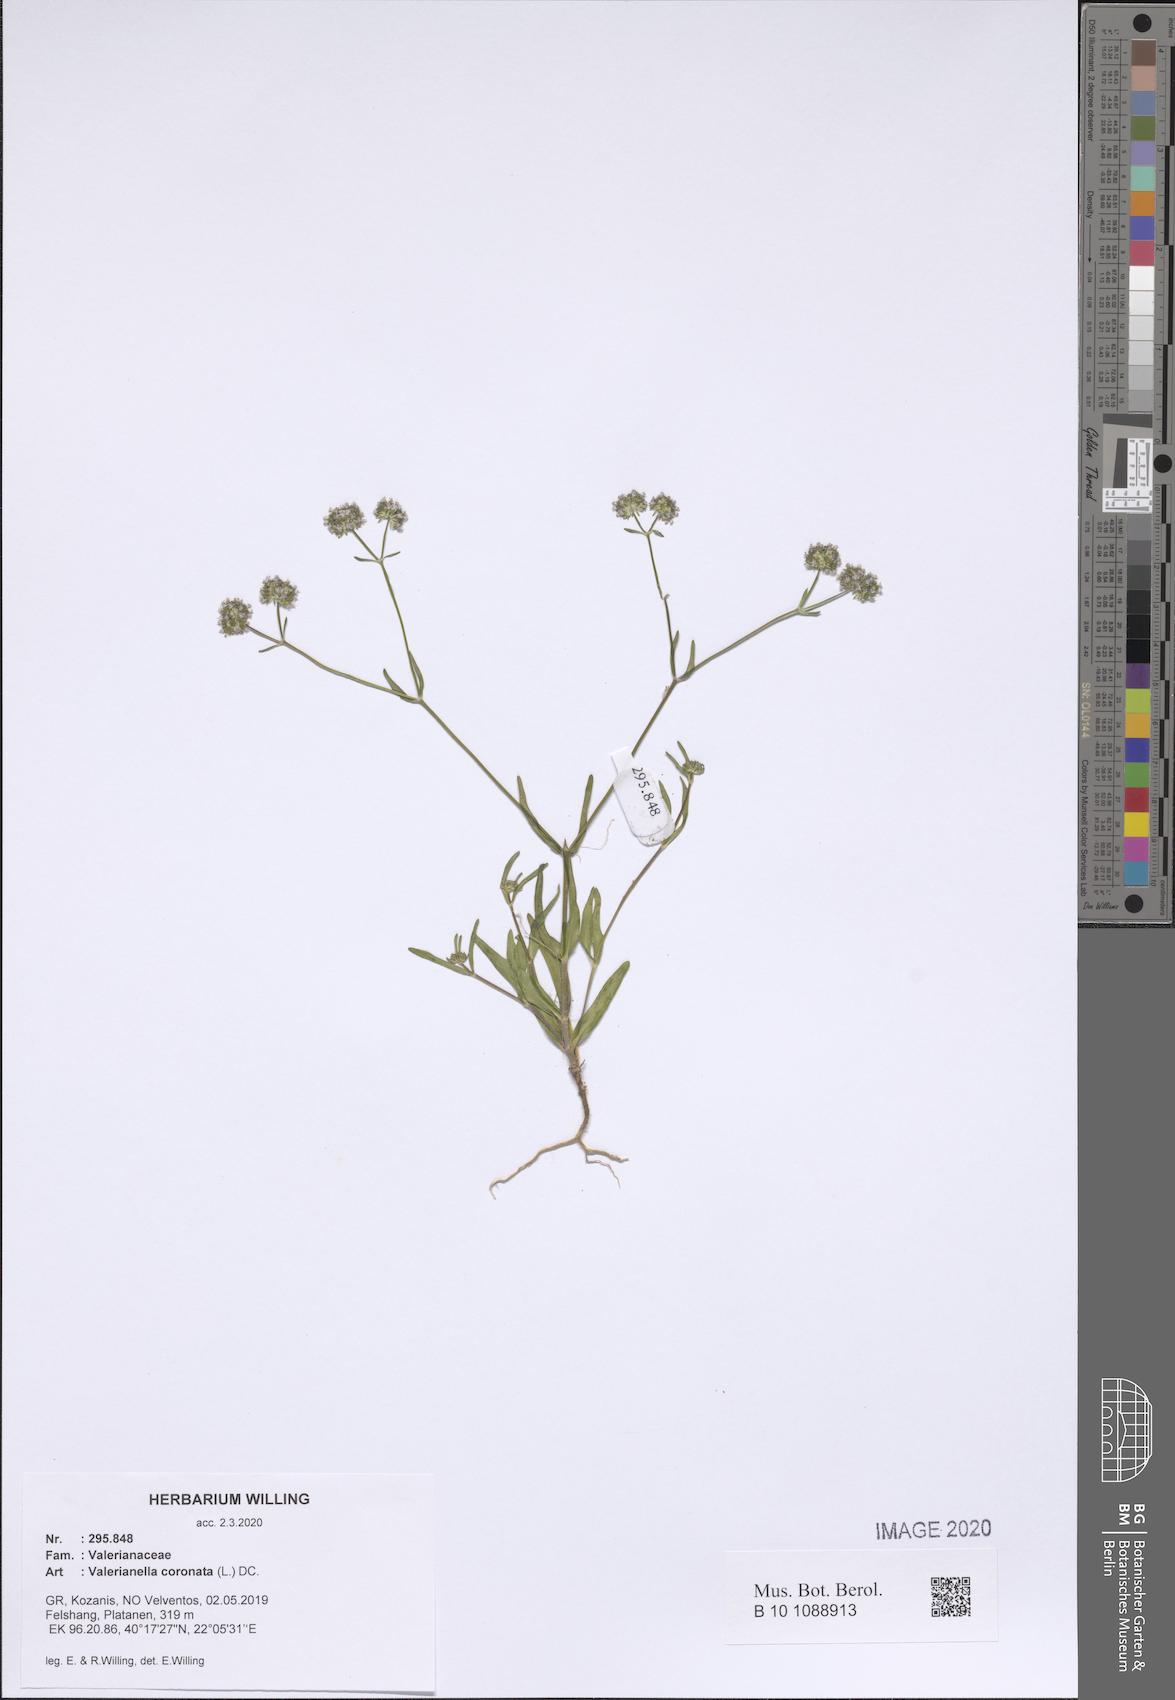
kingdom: Plantae
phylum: Tracheophyta
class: Magnoliopsida
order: Dipsacales
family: Caprifoliaceae
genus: Valerianella
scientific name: Valerianella coronata
